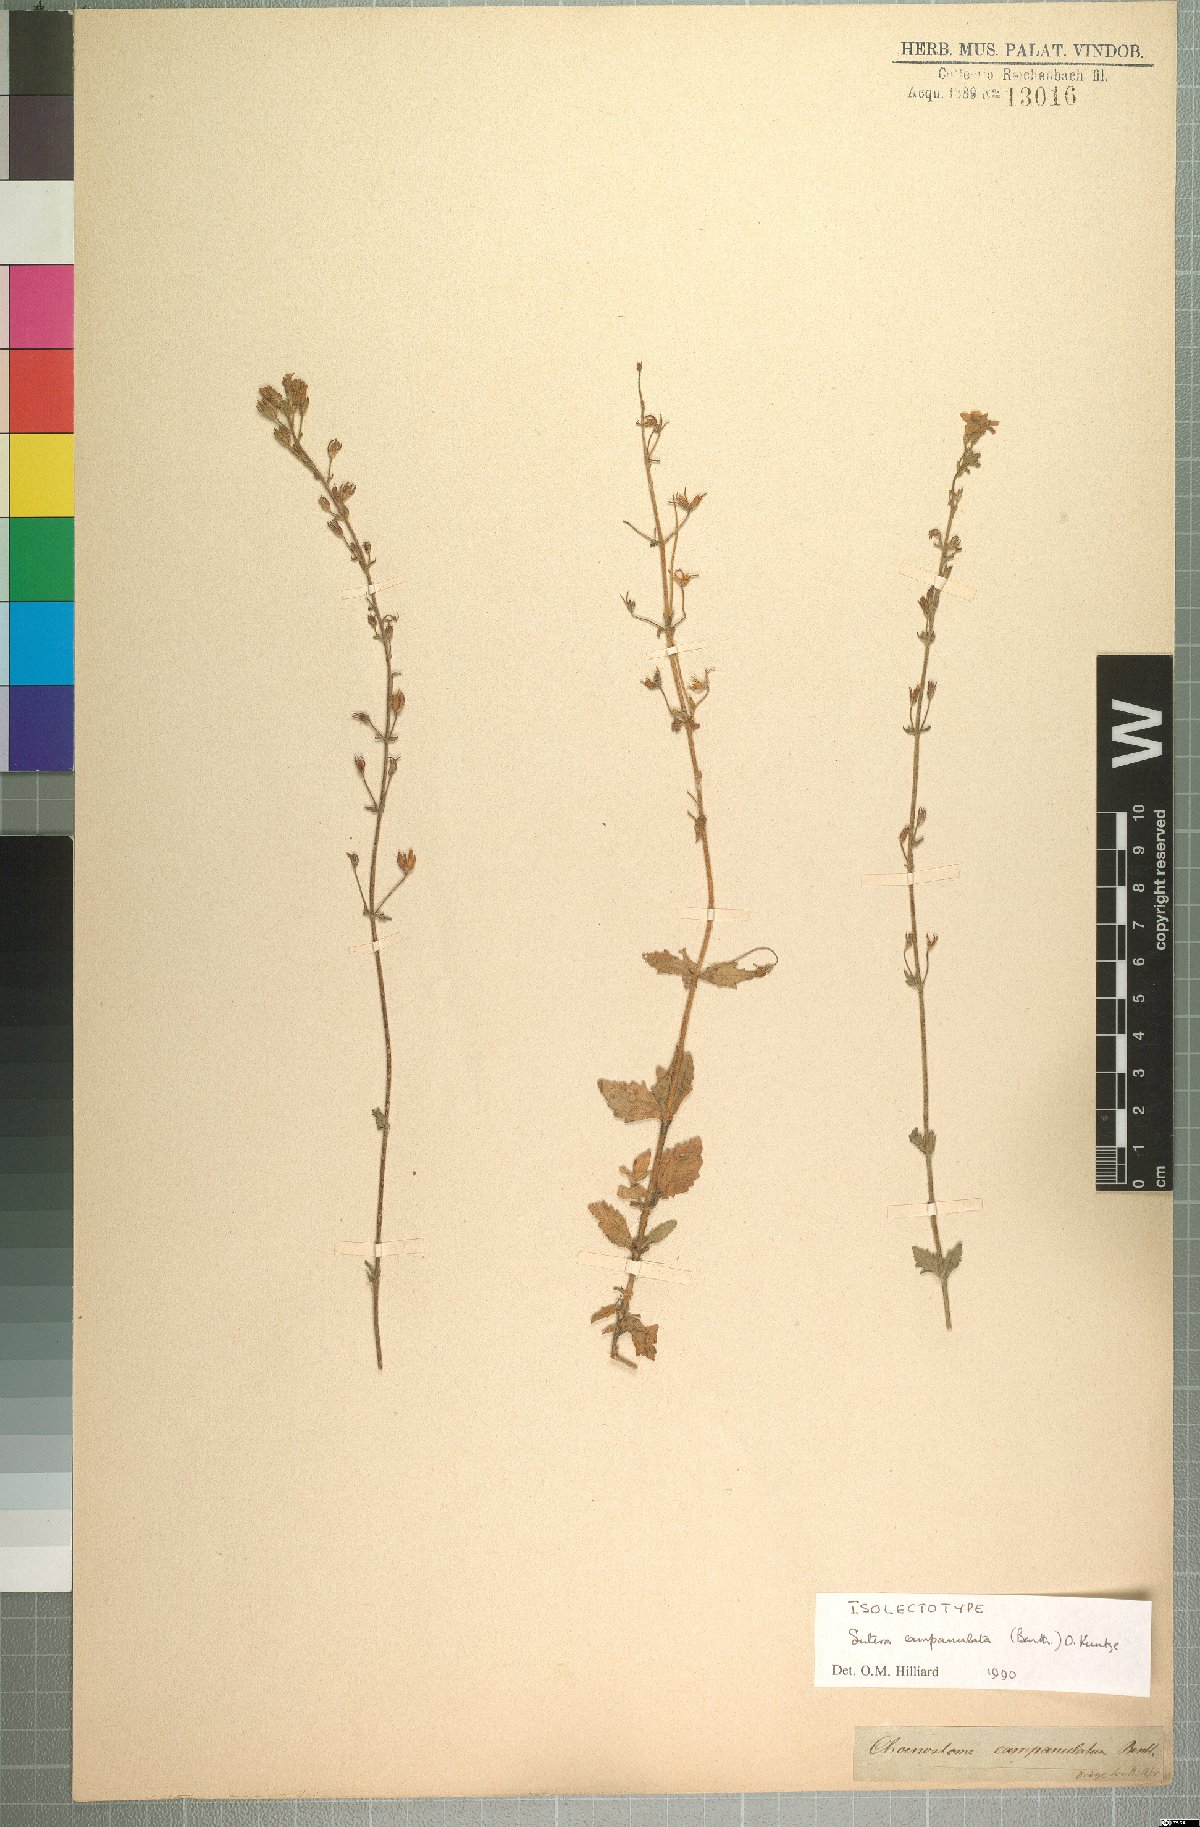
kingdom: Plantae
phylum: Tracheophyta
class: Magnoliopsida
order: Lamiales
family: Scrophulariaceae
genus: Chaenostoma
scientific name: Chaenostoma campanulatum
